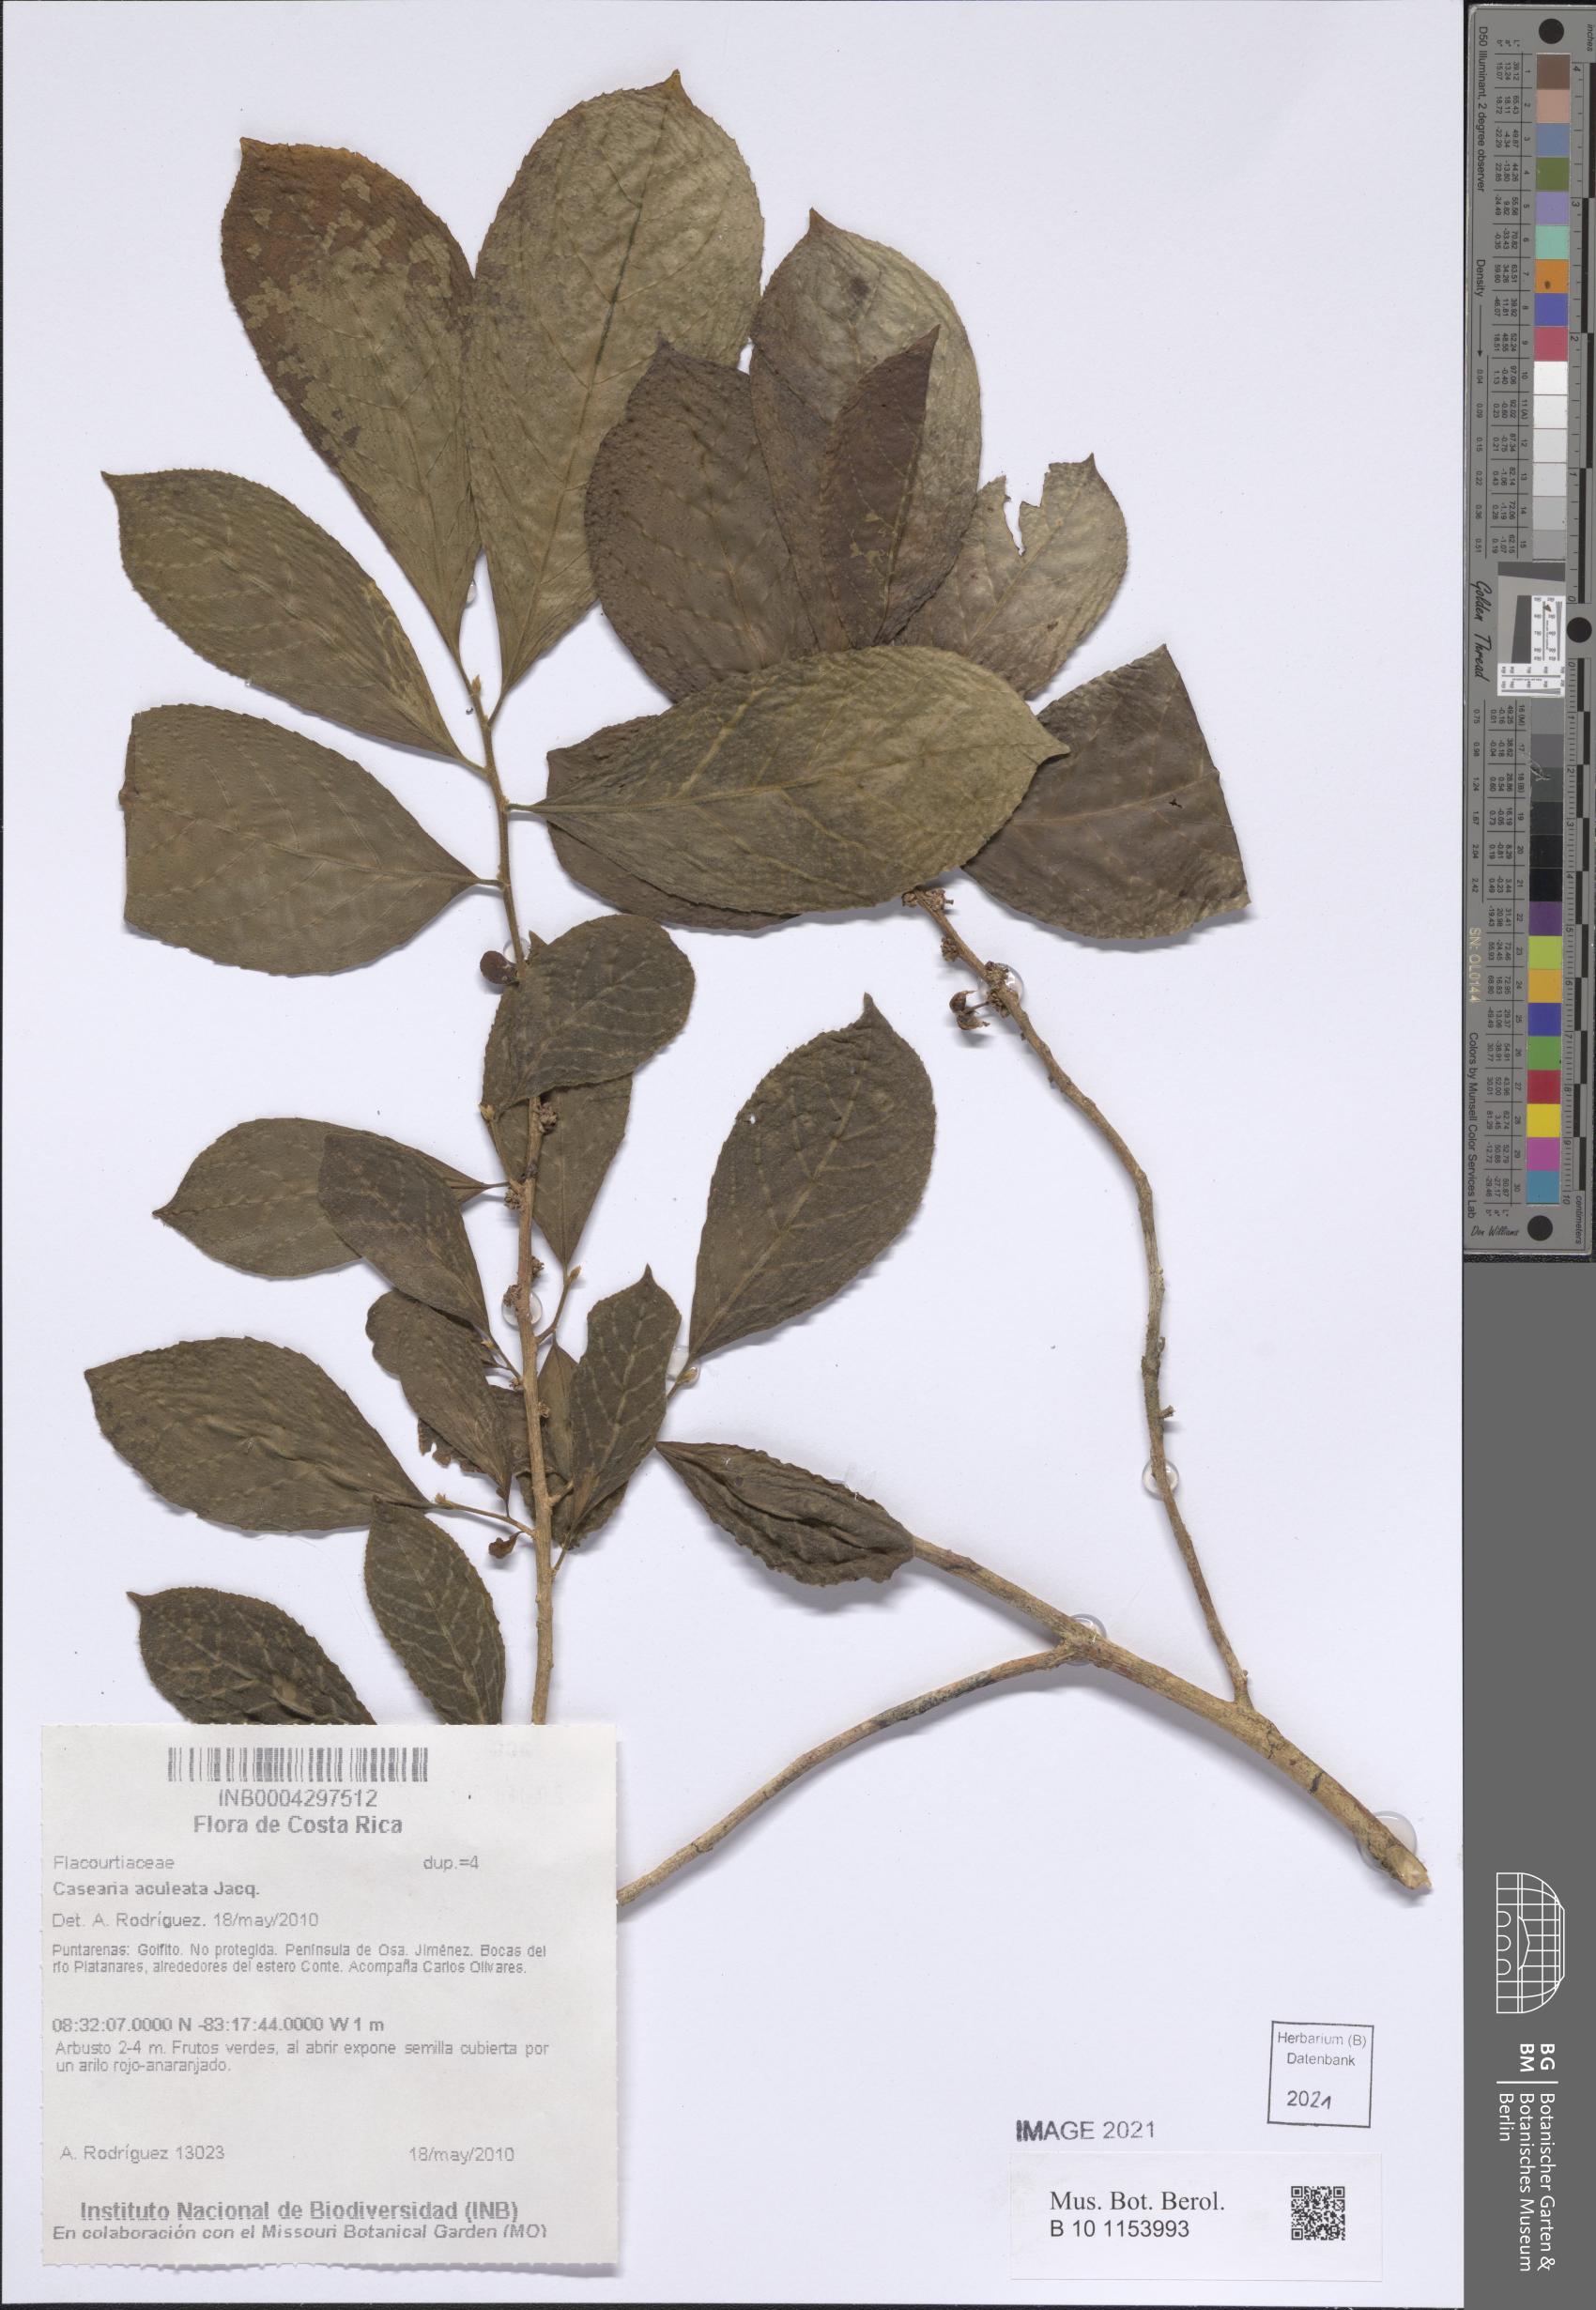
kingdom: Plantae
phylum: Tracheophyta
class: Magnoliopsida
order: Malpighiales
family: Salicaceae
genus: Casearia
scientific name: Casearia hirsuta
